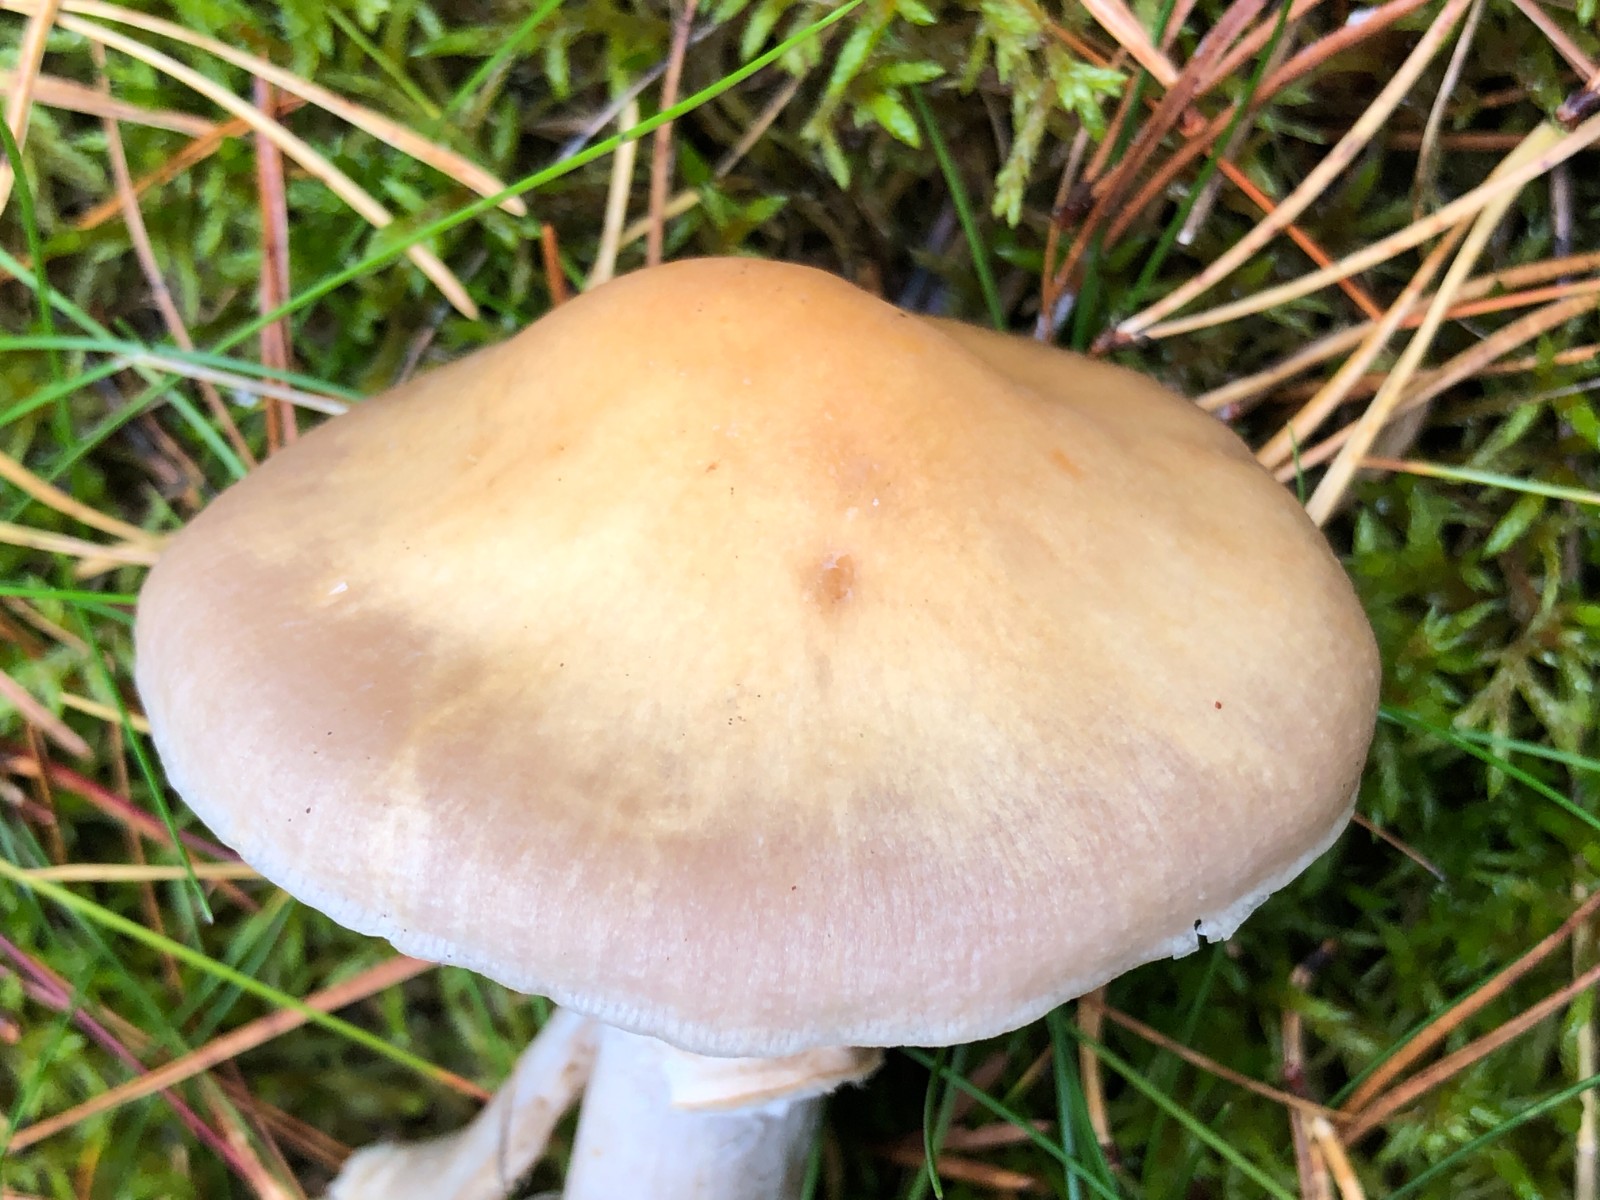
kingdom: Fungi
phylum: Basidiomycota
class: Agaricomycetes
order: Agaricales
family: Cortinariaceae
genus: Cortinarius
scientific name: Cortinarius caperatus
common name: klidhat
